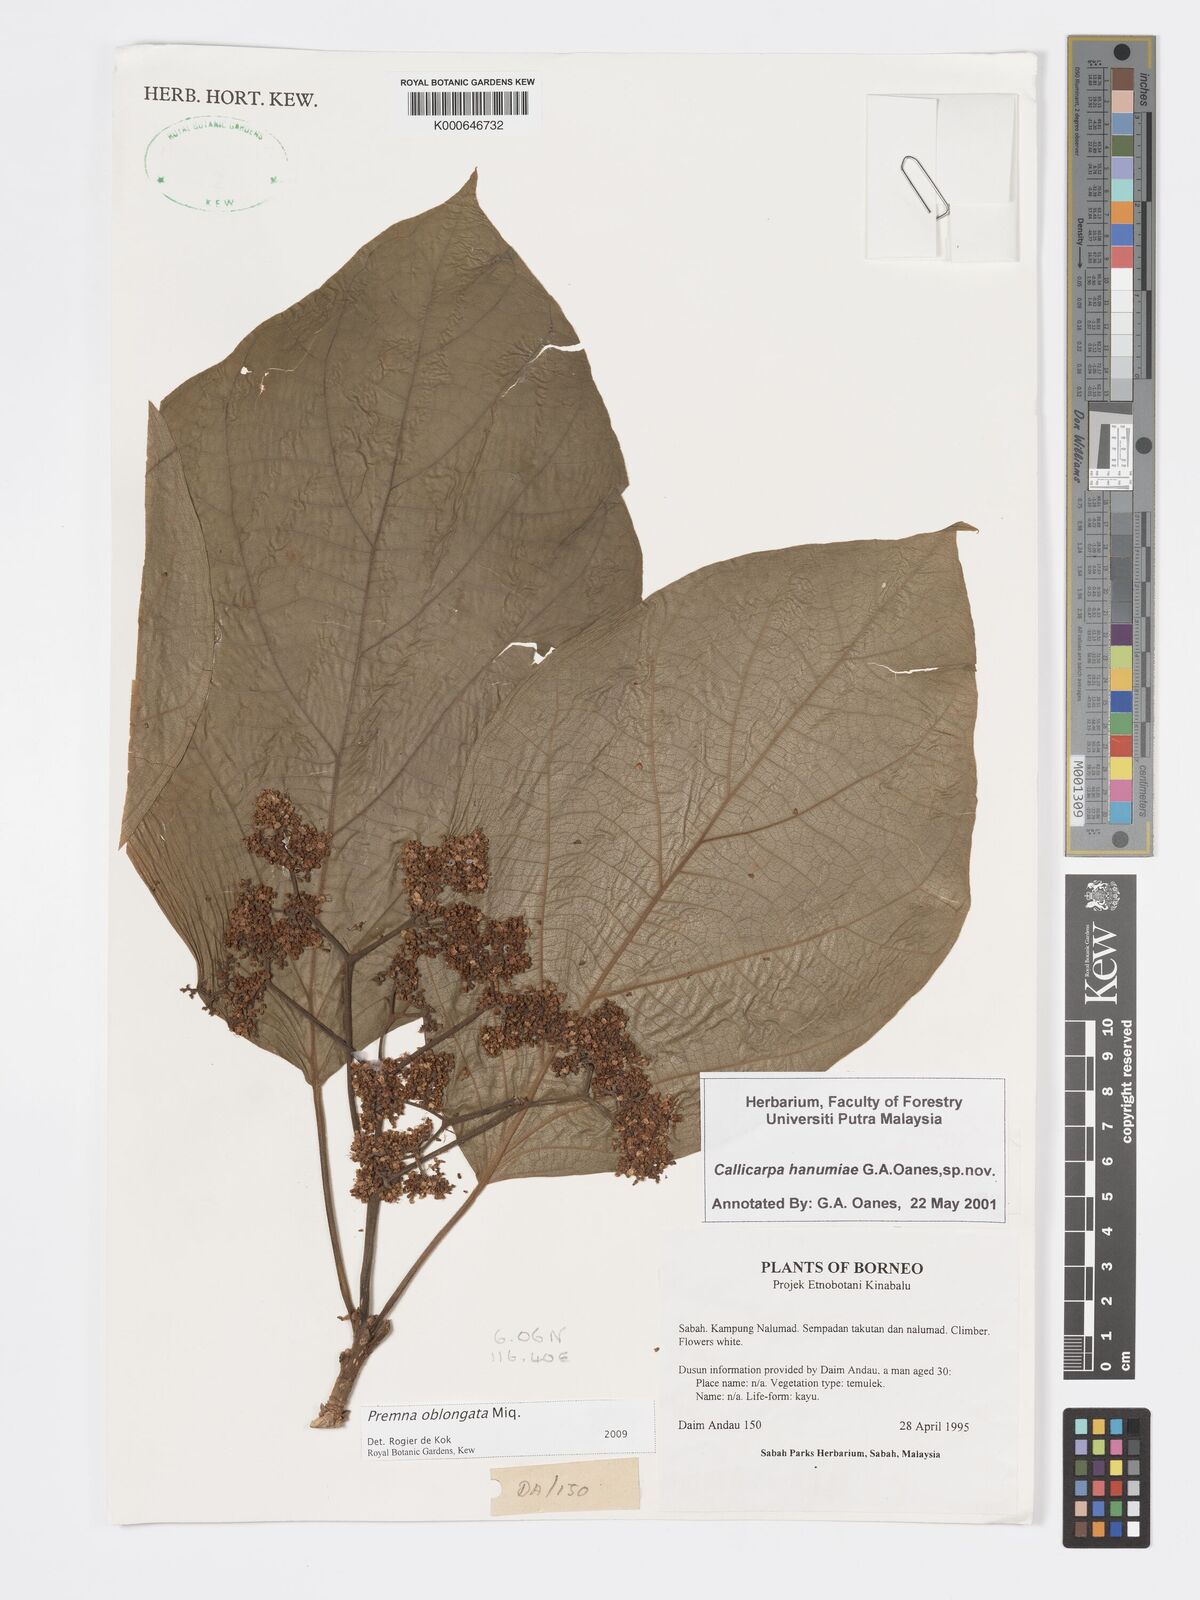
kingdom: Plantae
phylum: Tracheophyta
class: Magnoliopsida
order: Lamiales
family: Lamiaceae
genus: Premna
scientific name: Premna oblongata
